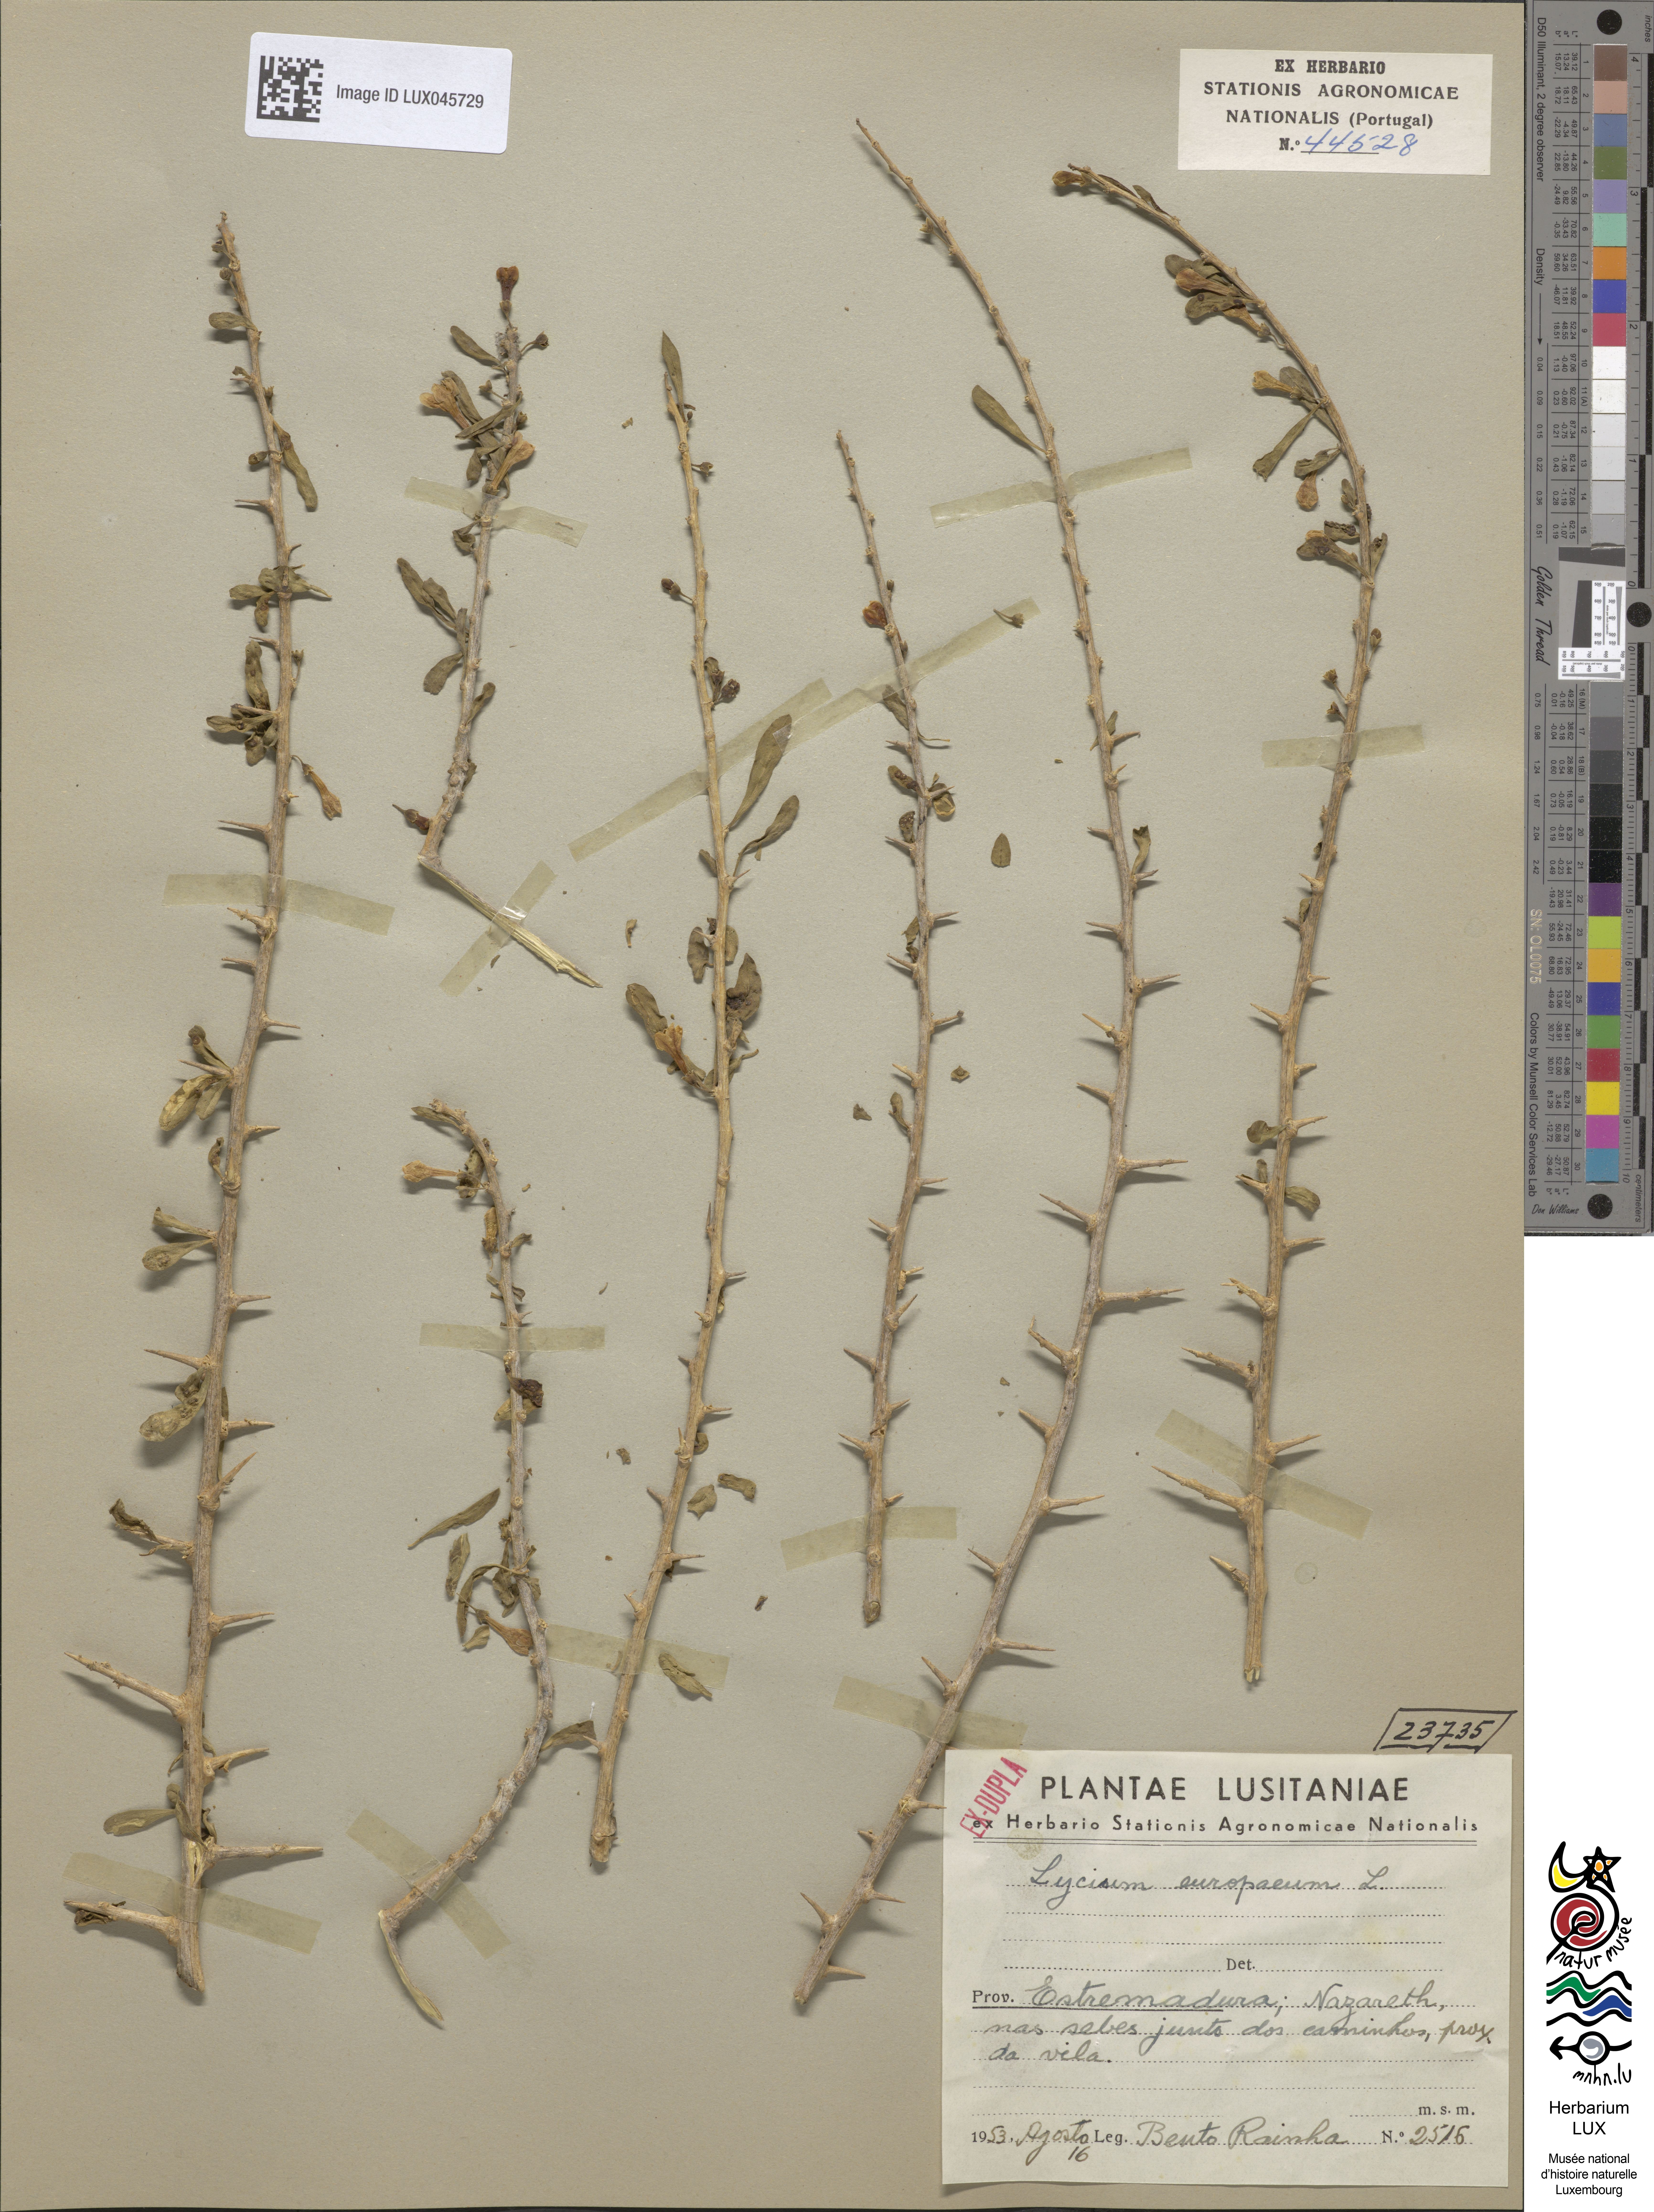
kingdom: Plantae
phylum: Tracheophyta
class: Magnoliopsida
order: Solanales
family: Solanaceae
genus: Lycium
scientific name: Lycium europaeum
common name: Boxthorn
